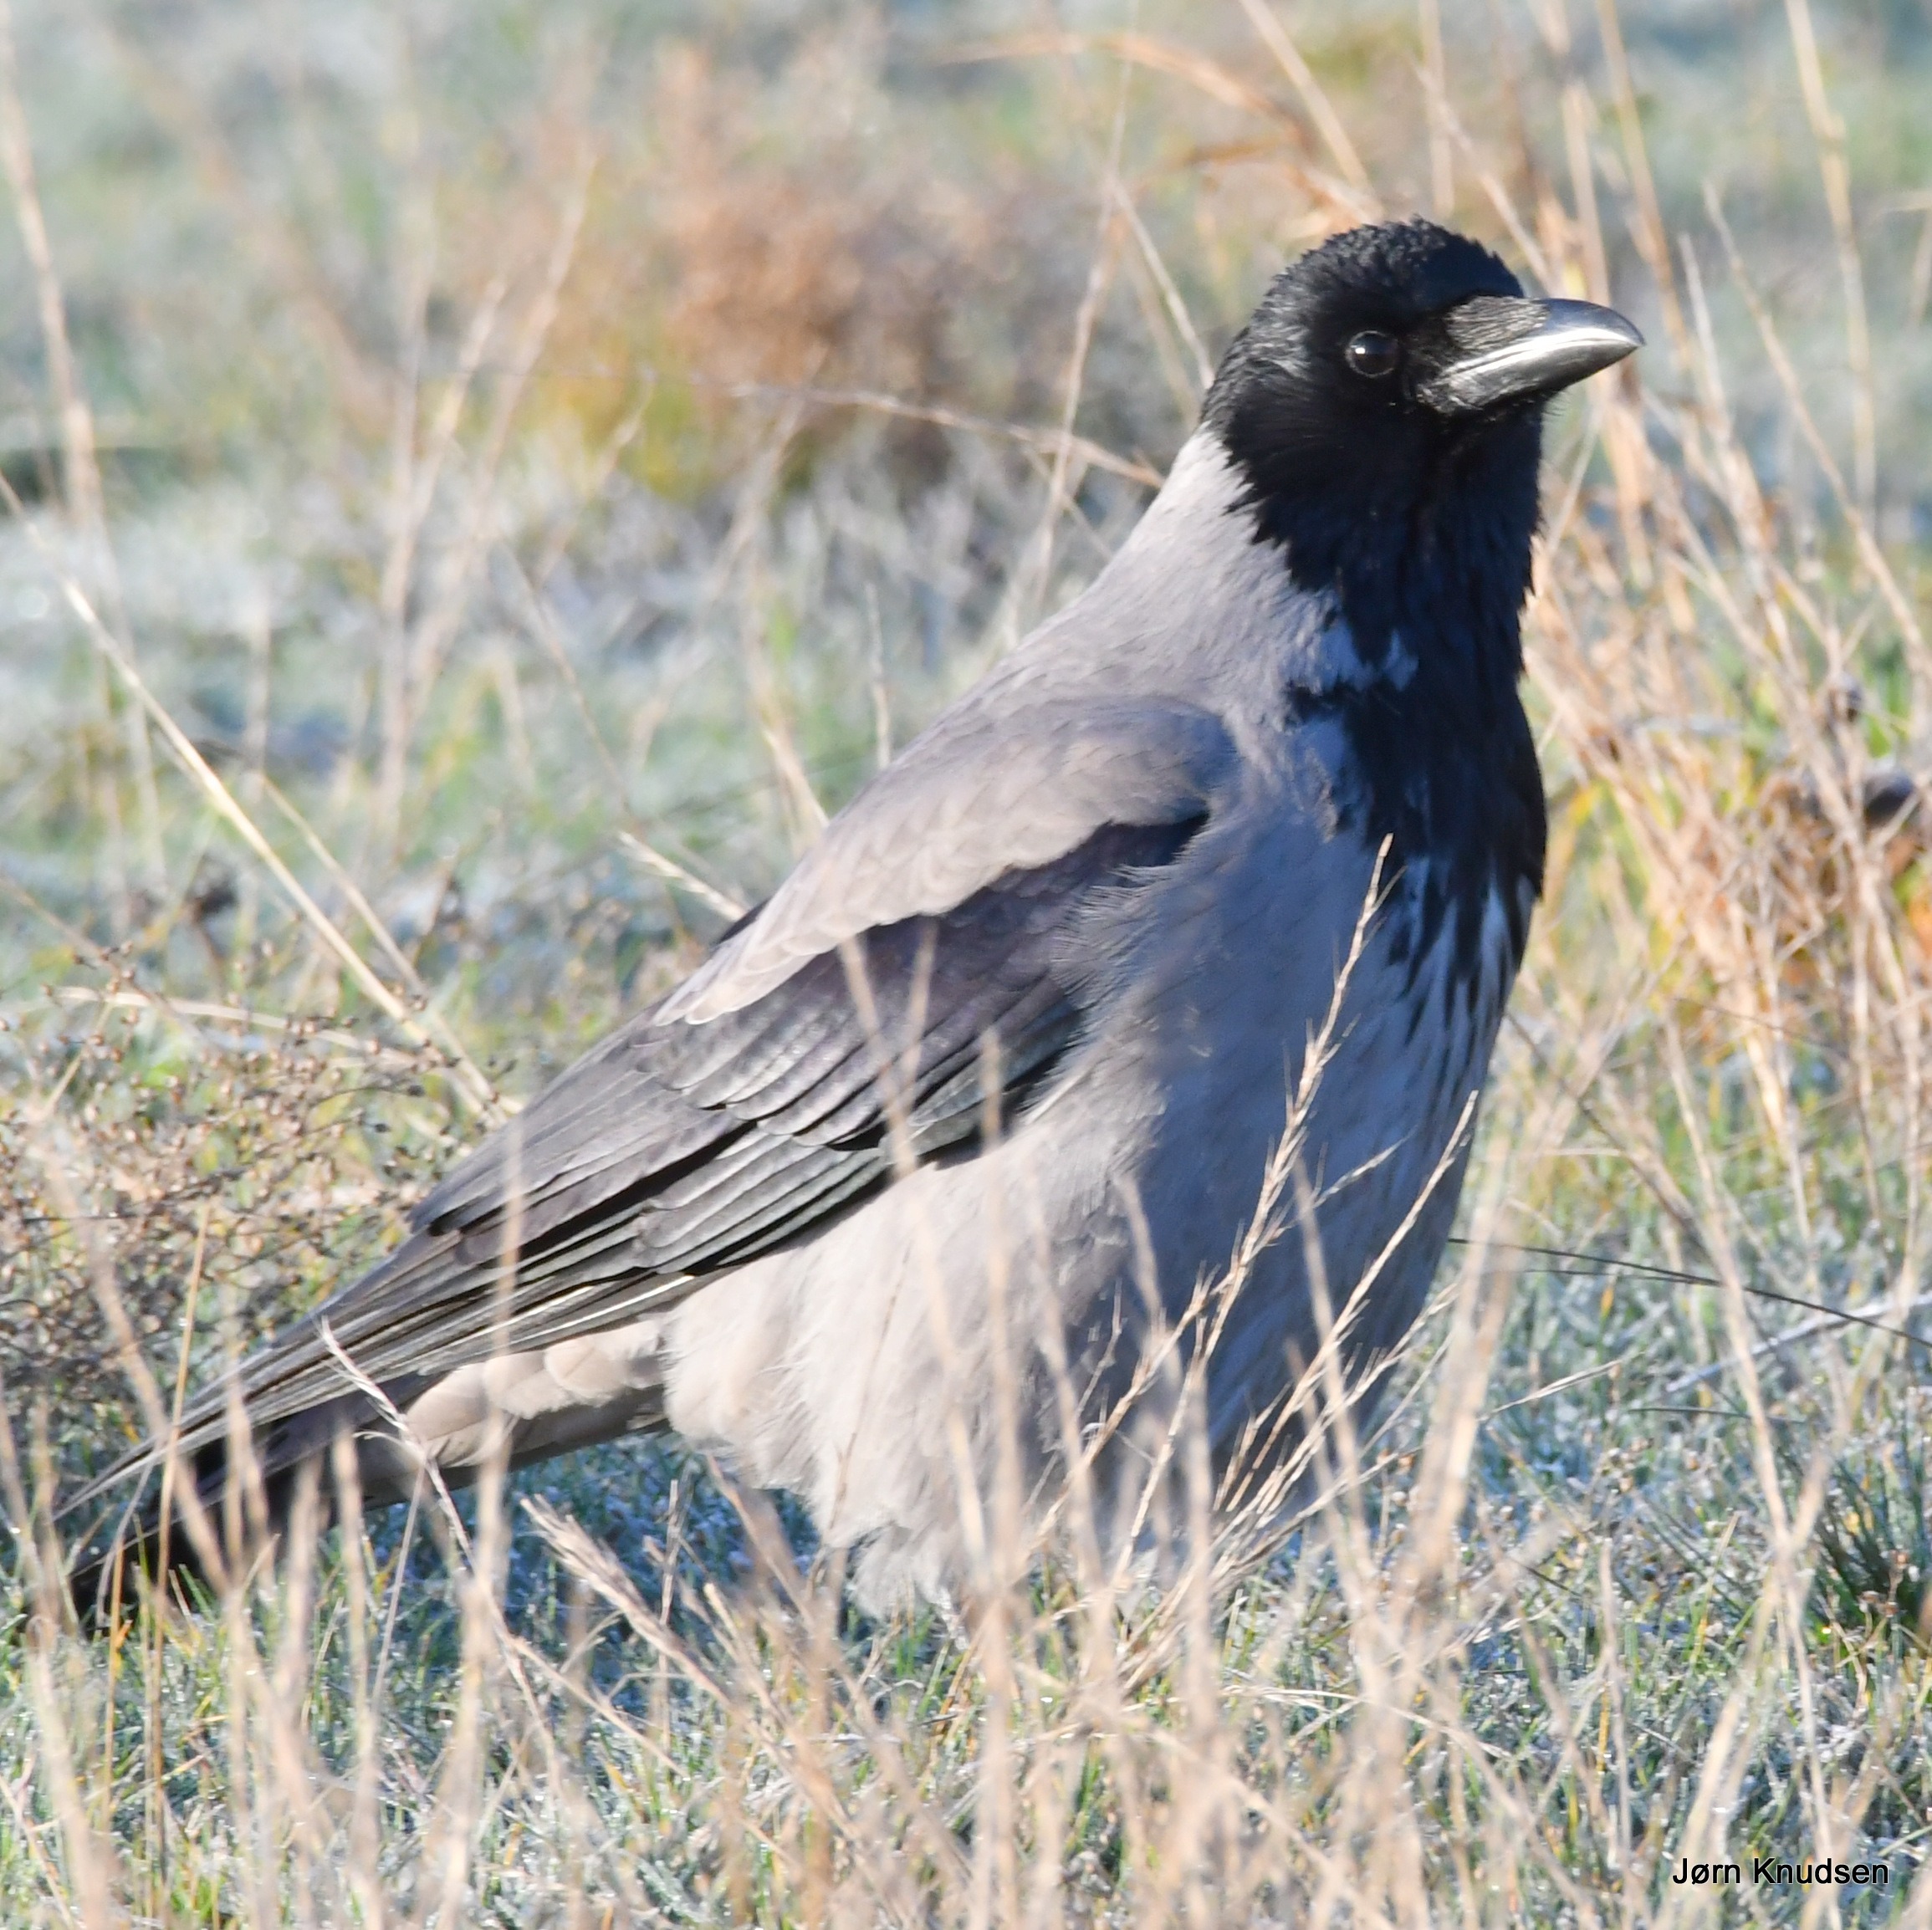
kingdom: Animalia
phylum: Chordata
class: Aves
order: Passeriformes
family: Corvidae
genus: Corvus
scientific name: Corvus cornix
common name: Gråkrage
